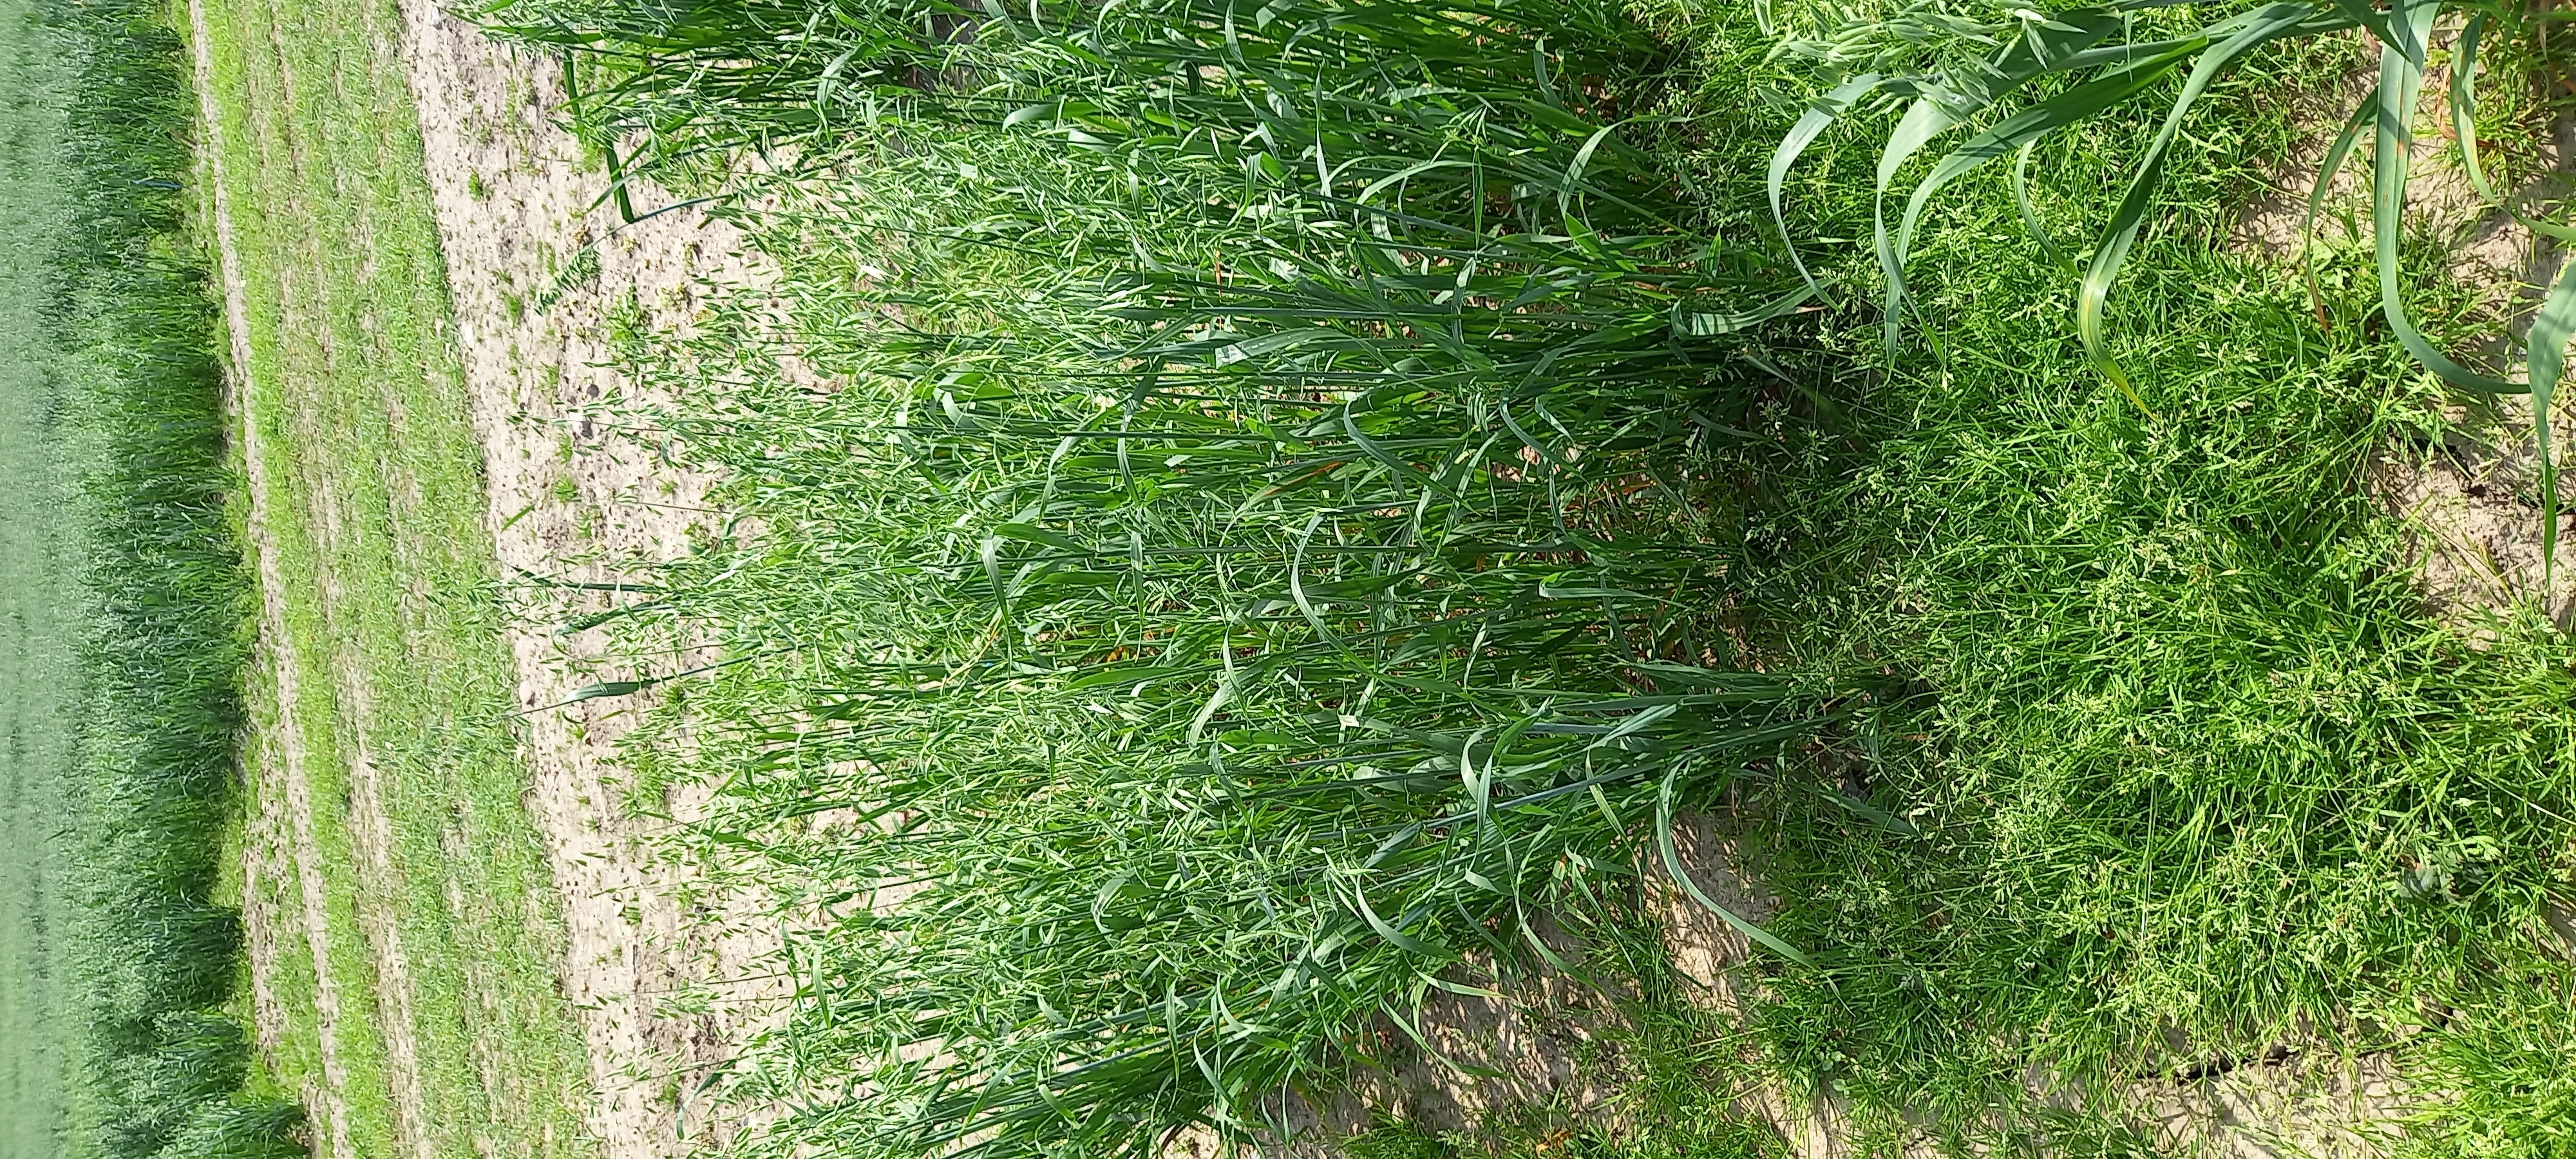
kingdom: Plantae
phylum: Tracheophyta
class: Liliopsida
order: Poales
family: Poaceae
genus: Avena
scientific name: Avena sativa
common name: Oat
